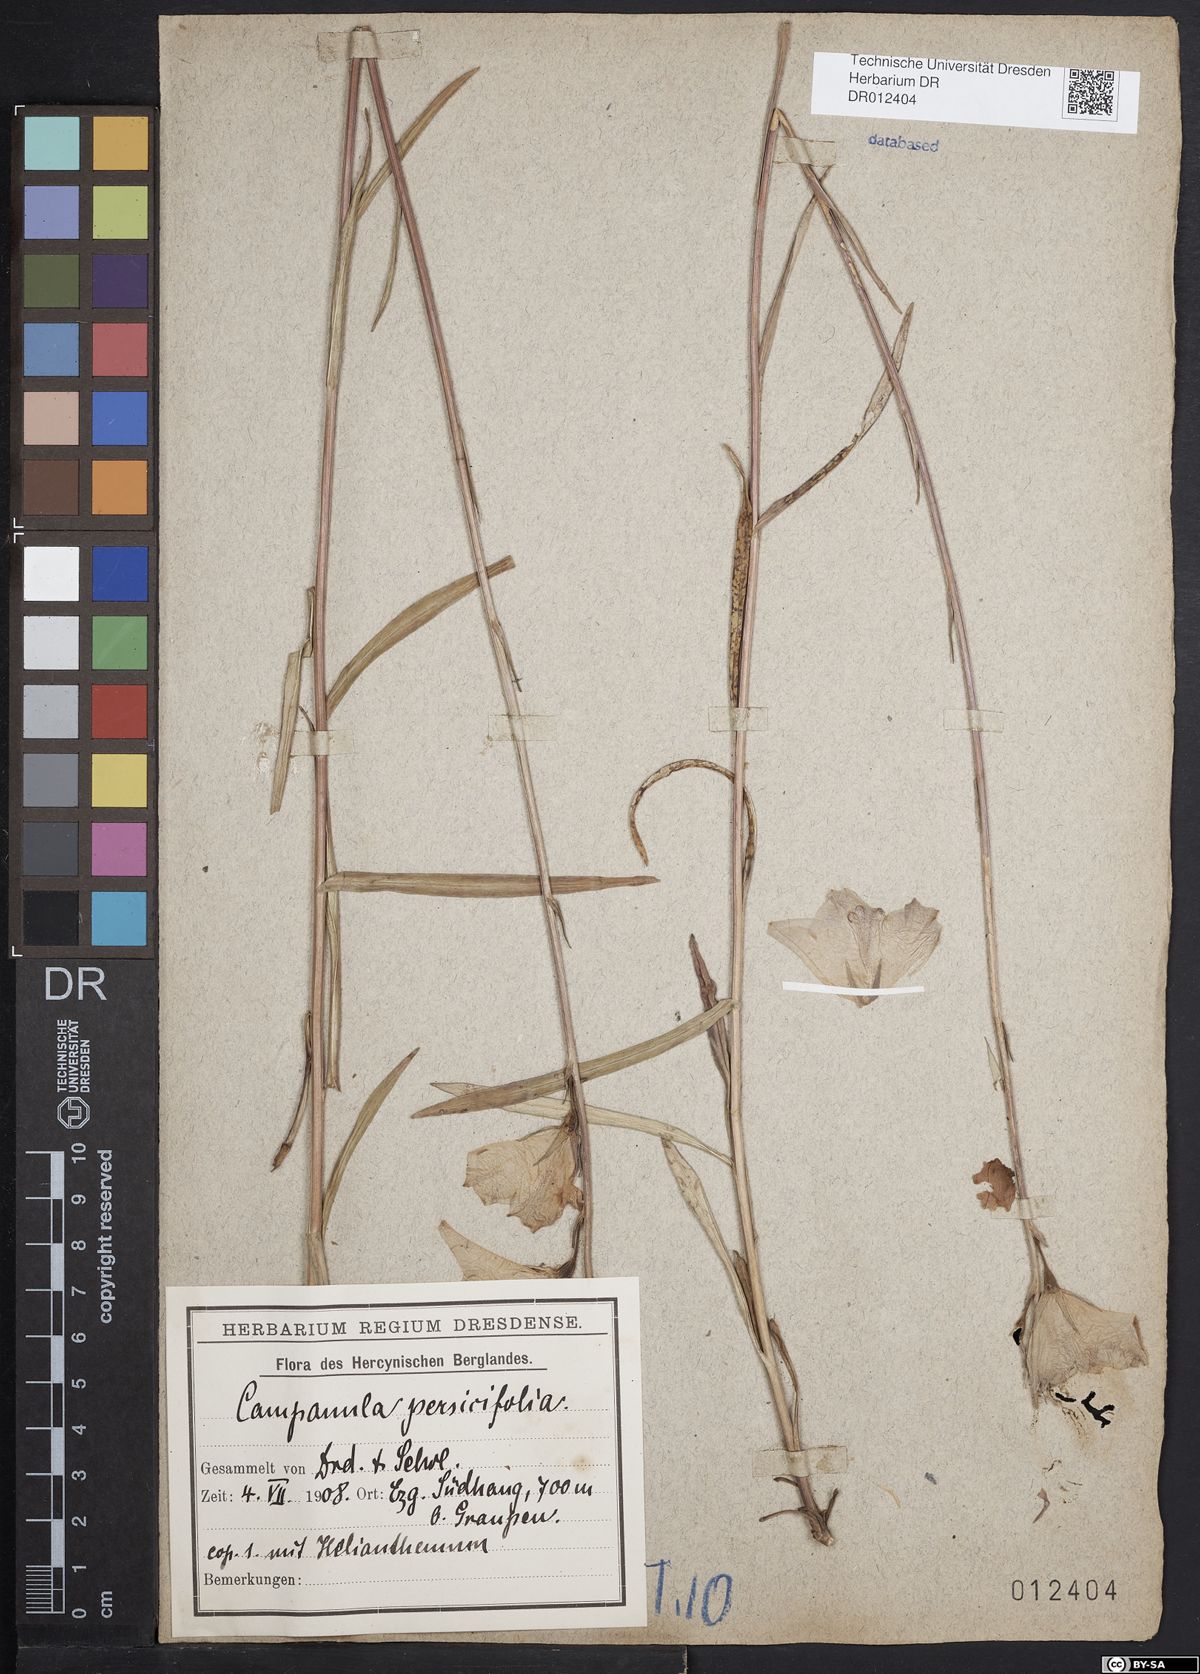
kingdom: Plantae
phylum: Tracheophyta
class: Magnoliopsida
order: Asterales
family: Campanulaceae
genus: Campanula
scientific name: Campanula persicifolia
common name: Peach-leaved bellflower
